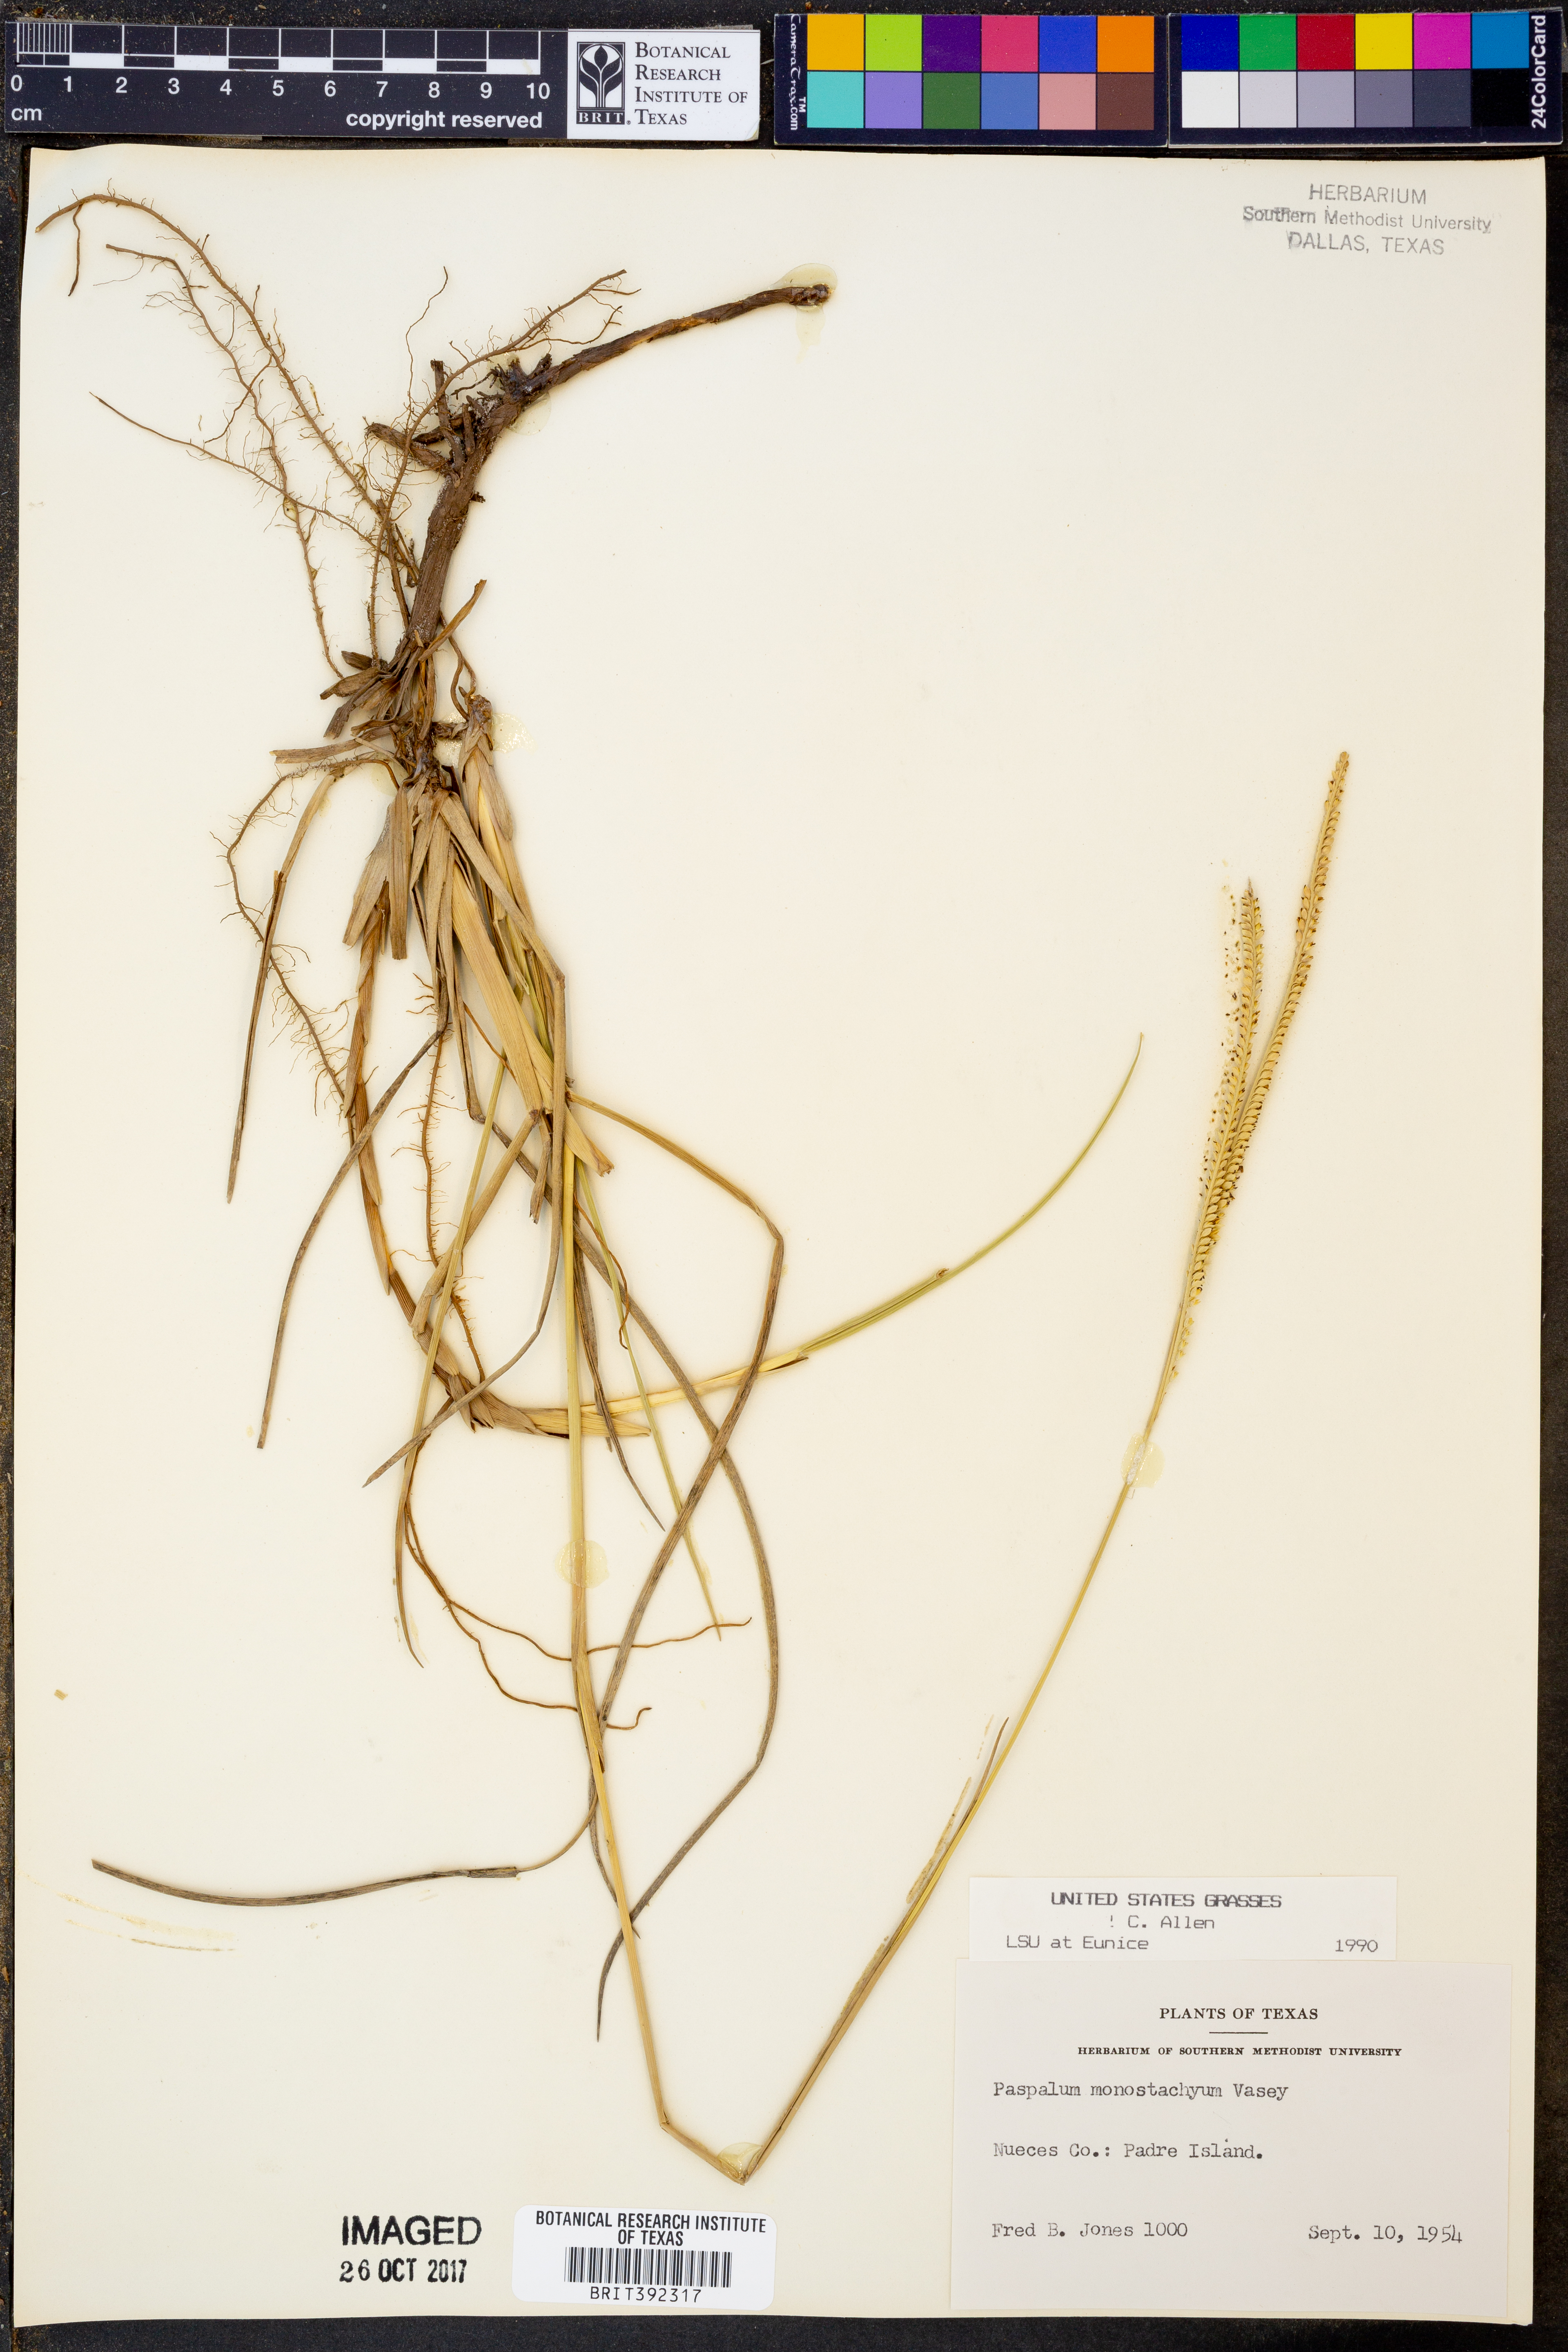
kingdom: Plantae
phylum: Tracheophyta
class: Liliopsida
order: Poales
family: Poaceae
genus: Paspalum
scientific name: Paspalum monostachyum
